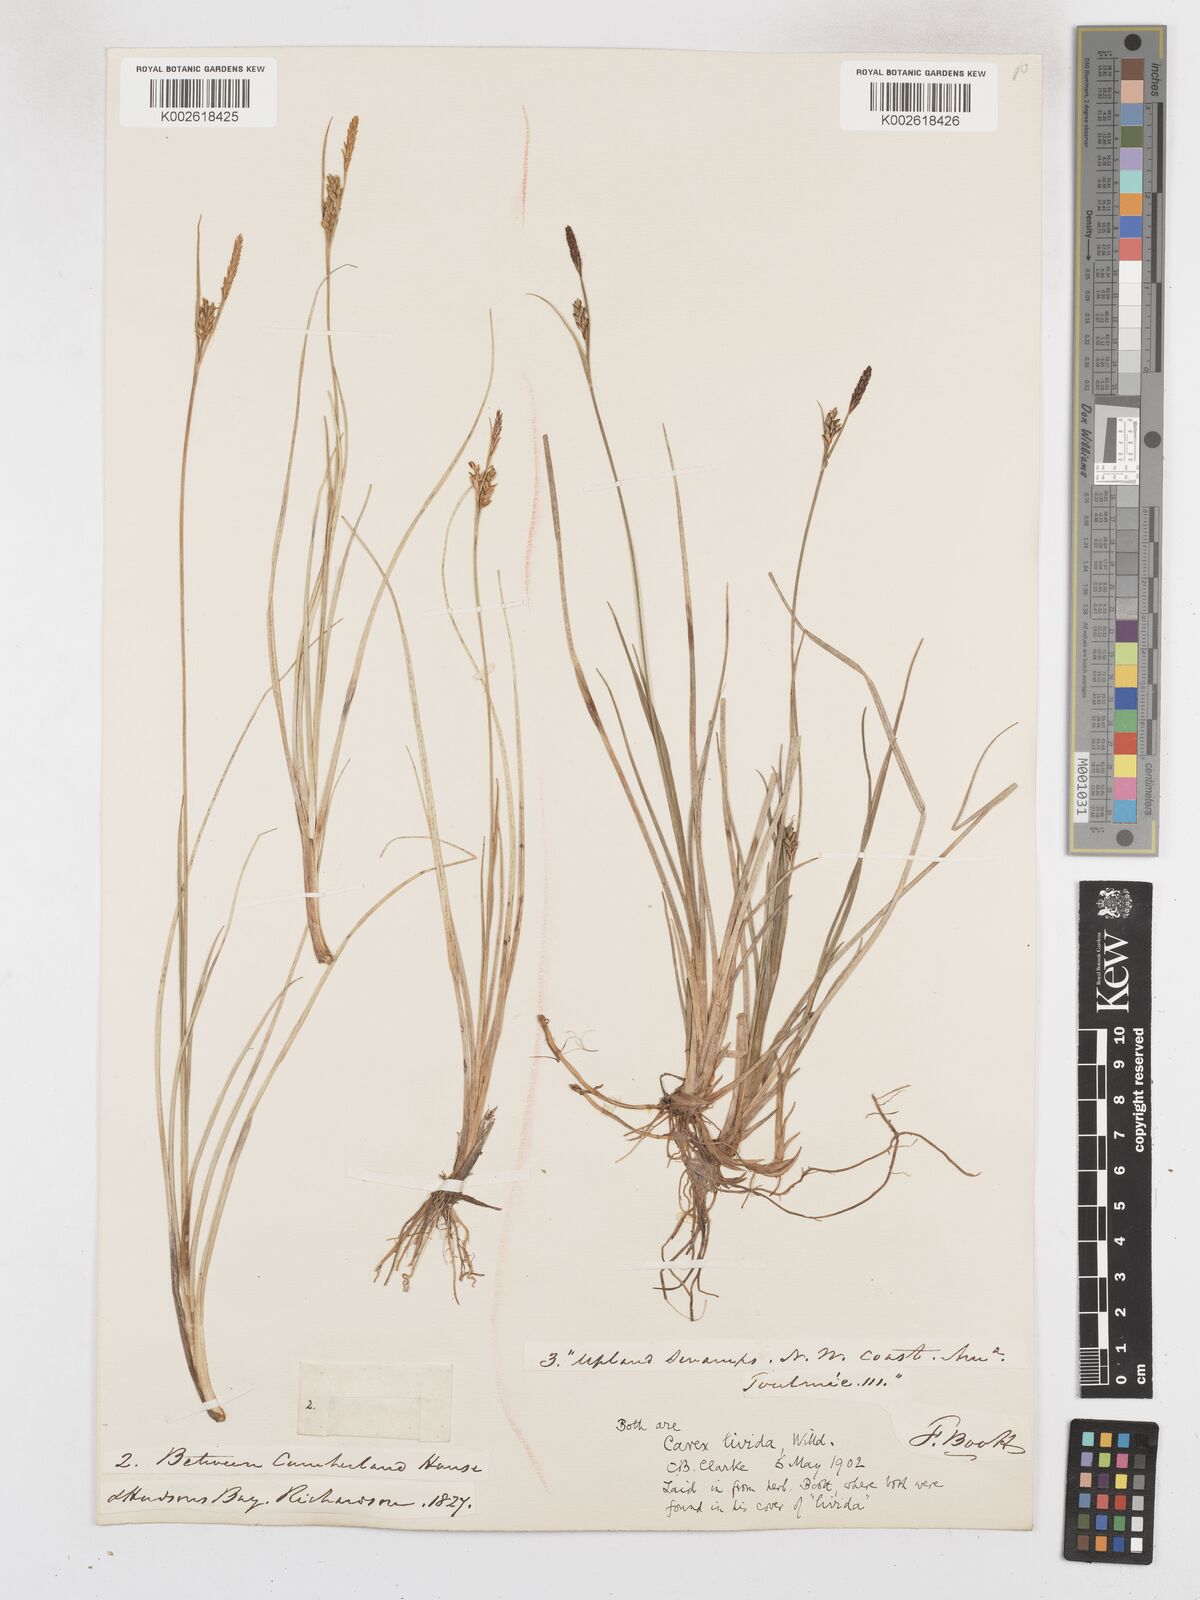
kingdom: Plantae
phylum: Tracheophyta
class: Liliopsida
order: Poales
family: Cyperaceae
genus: Carex
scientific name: Carex livida
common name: Livid sedge
